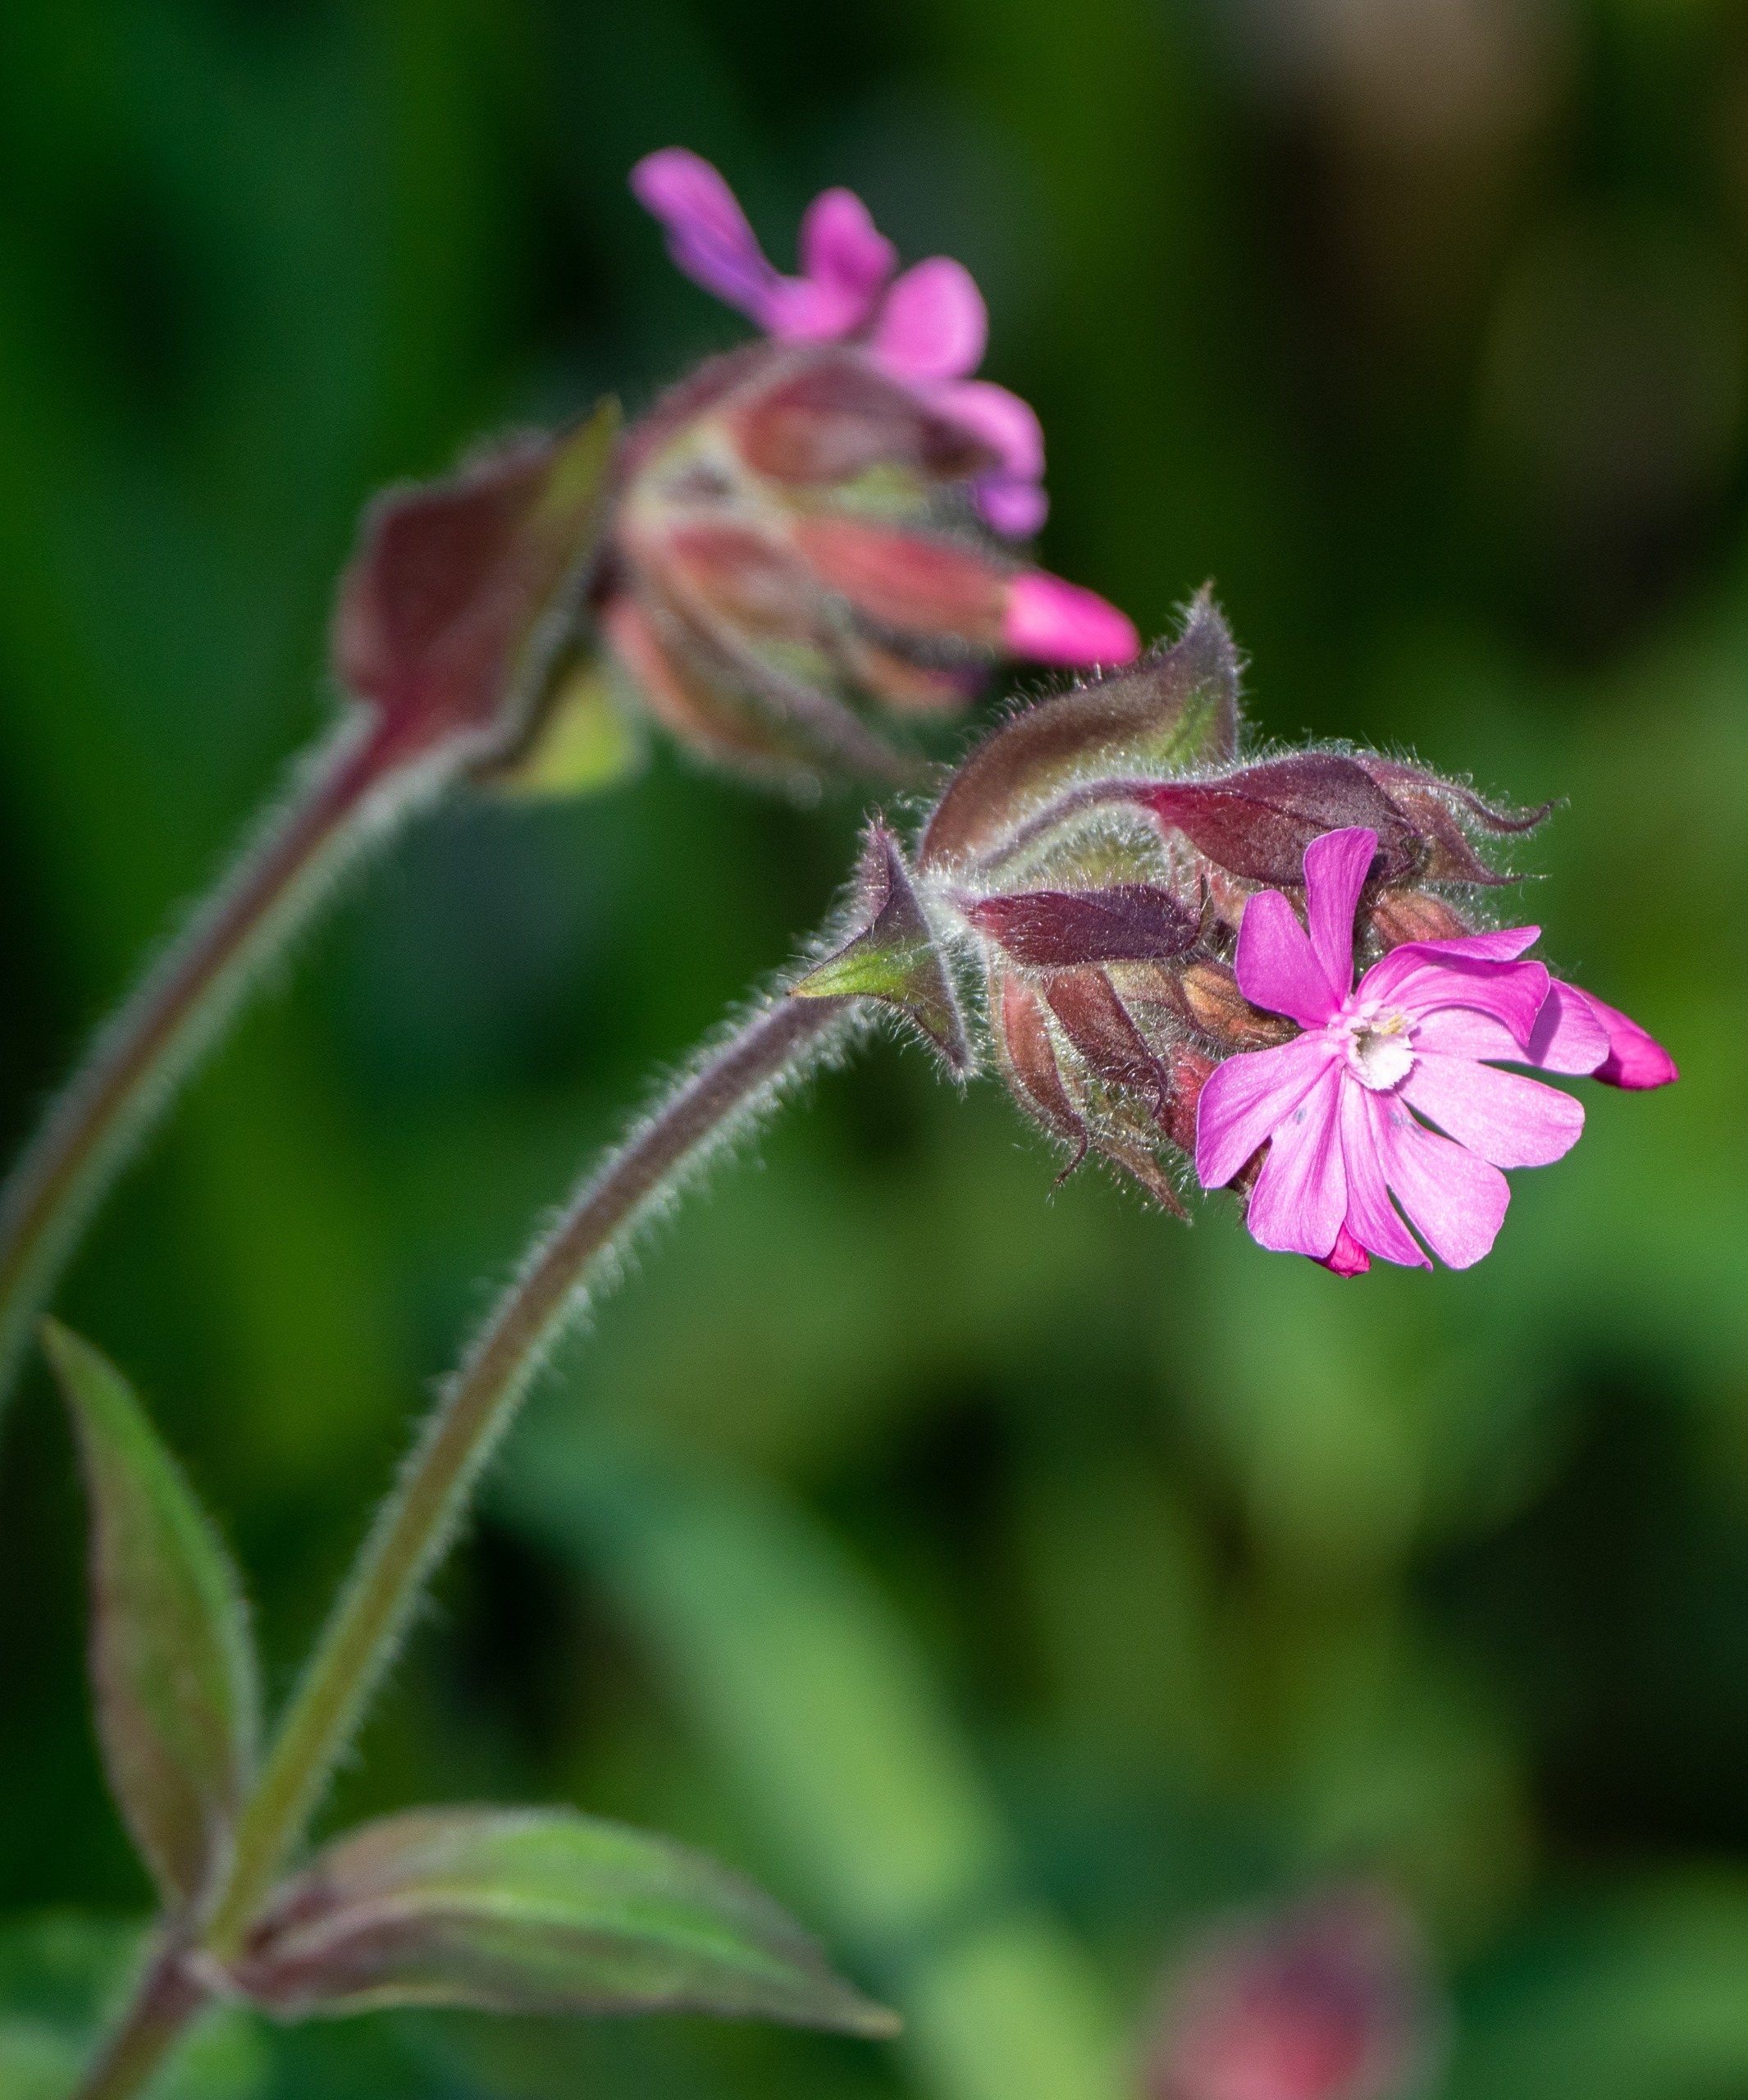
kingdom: Plantae
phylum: Tracheophyta
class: Magnoliopsida
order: Caryophyllales
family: Caryophyllaceae
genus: Silene
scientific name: Silene dioica
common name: Dagpragtstjerne
